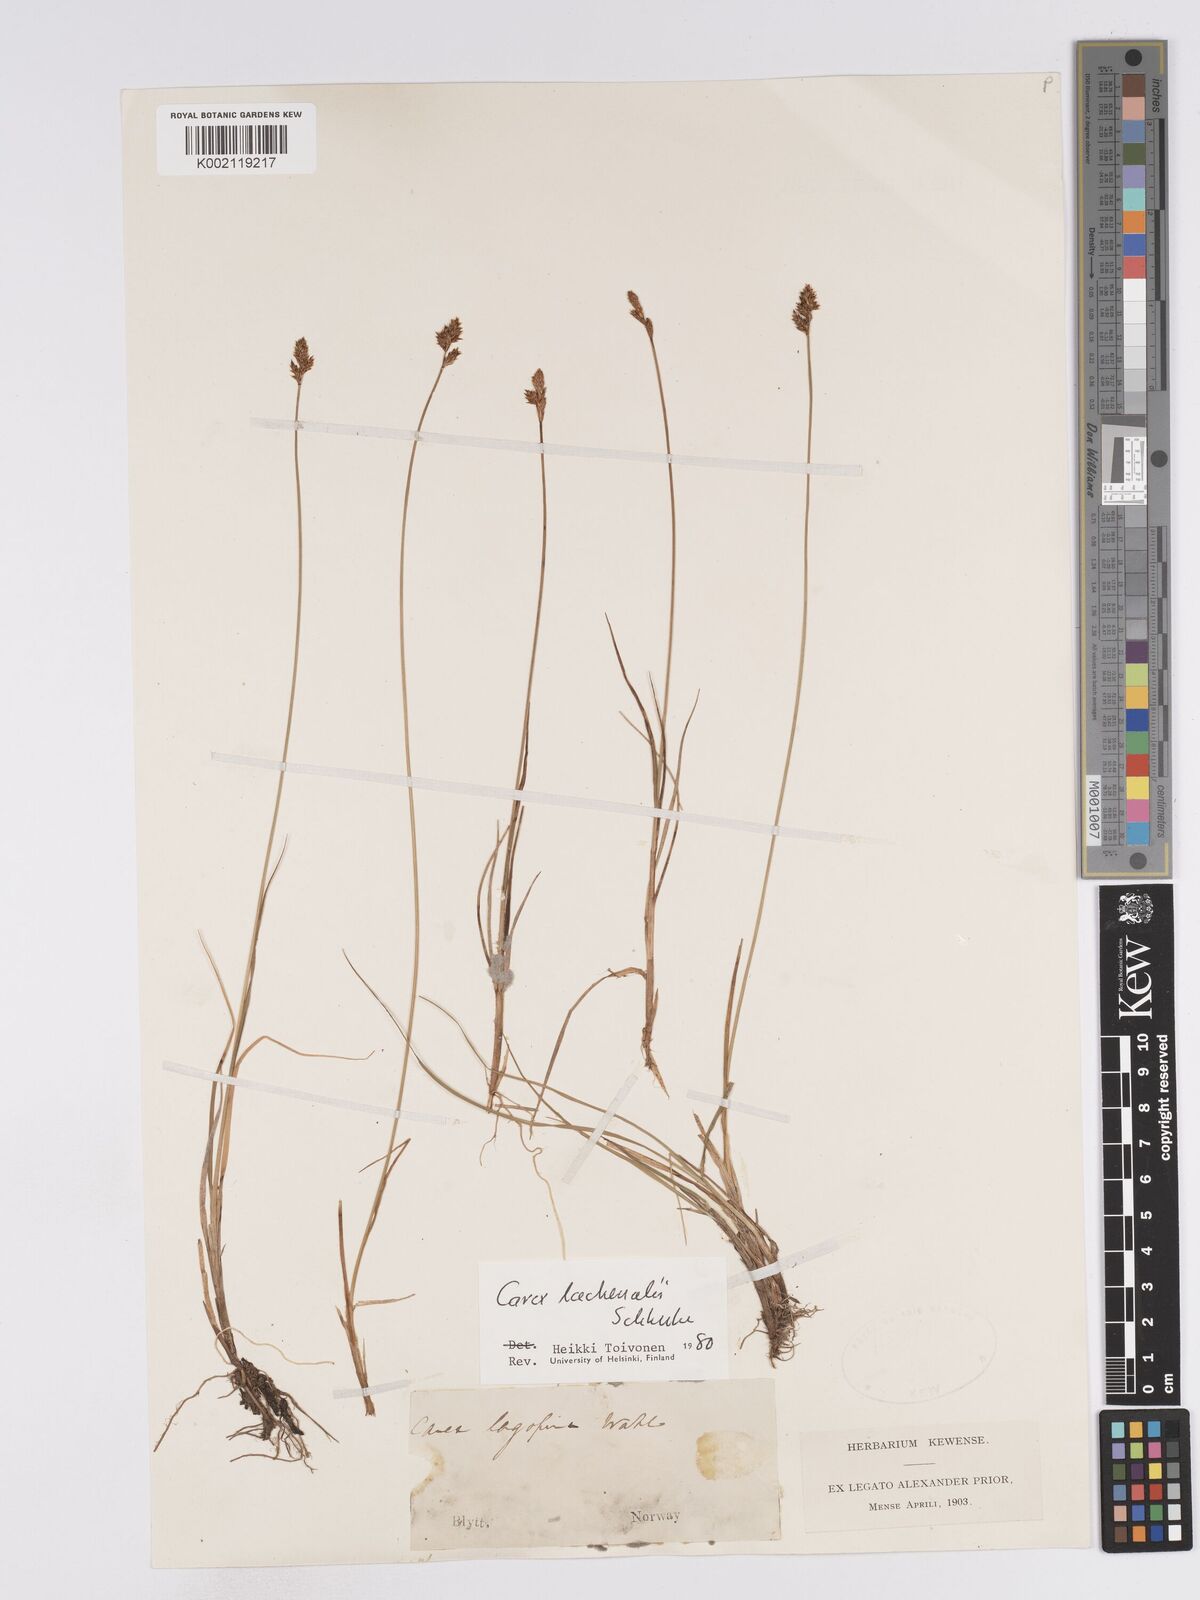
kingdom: Plantae
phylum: Tracheophyta
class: Liliopsida
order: Poales
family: Cyperaceae
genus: Carex
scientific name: Carex lachenalii
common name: Hare's-foot sedge
